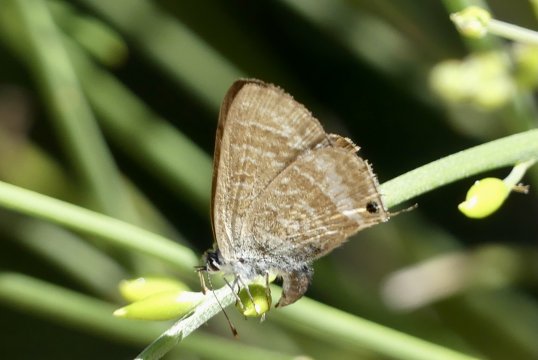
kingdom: Animalia
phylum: Arthropoda
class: Insecta
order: Lepidoptera
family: Lycaenidae
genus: Lampides
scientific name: Lampides boeticus
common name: Pea Blue
